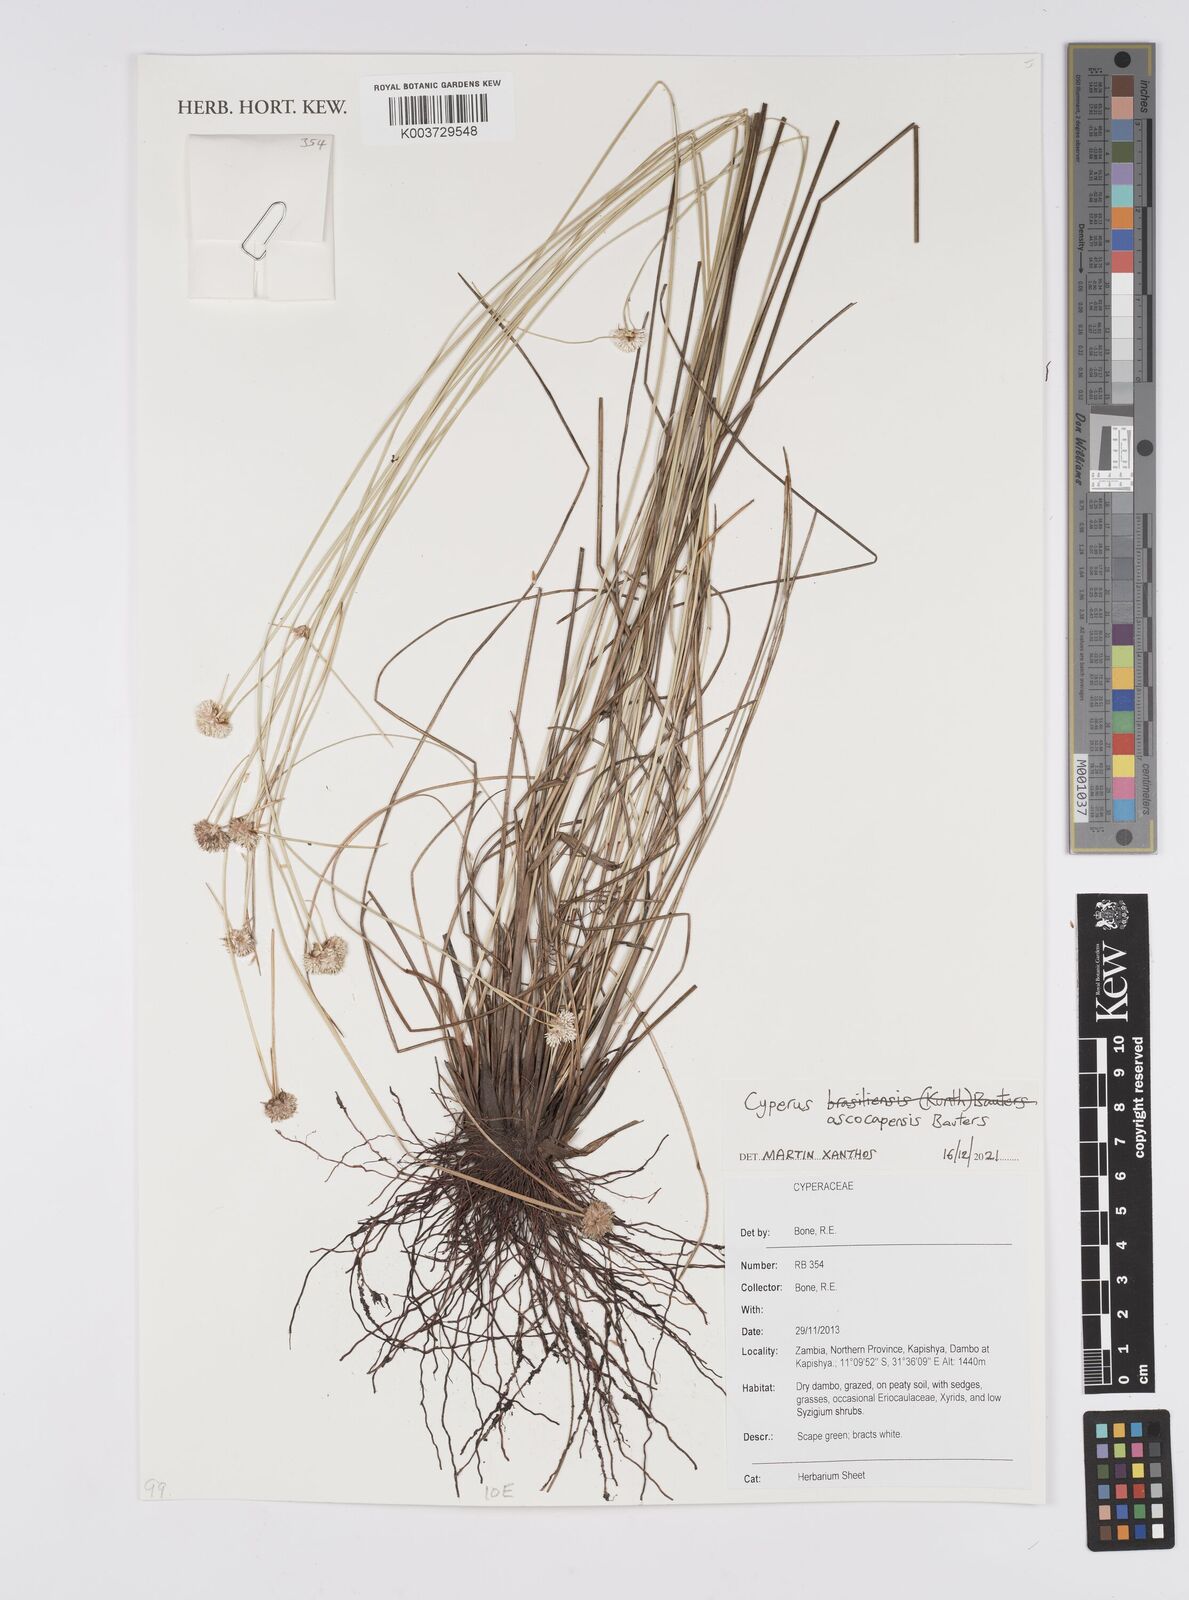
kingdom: Plantae
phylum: Tracheophyta
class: Liliopsida
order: Poales
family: Cyperaceae
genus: Cyperus
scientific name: Cyperus ascocapensis
